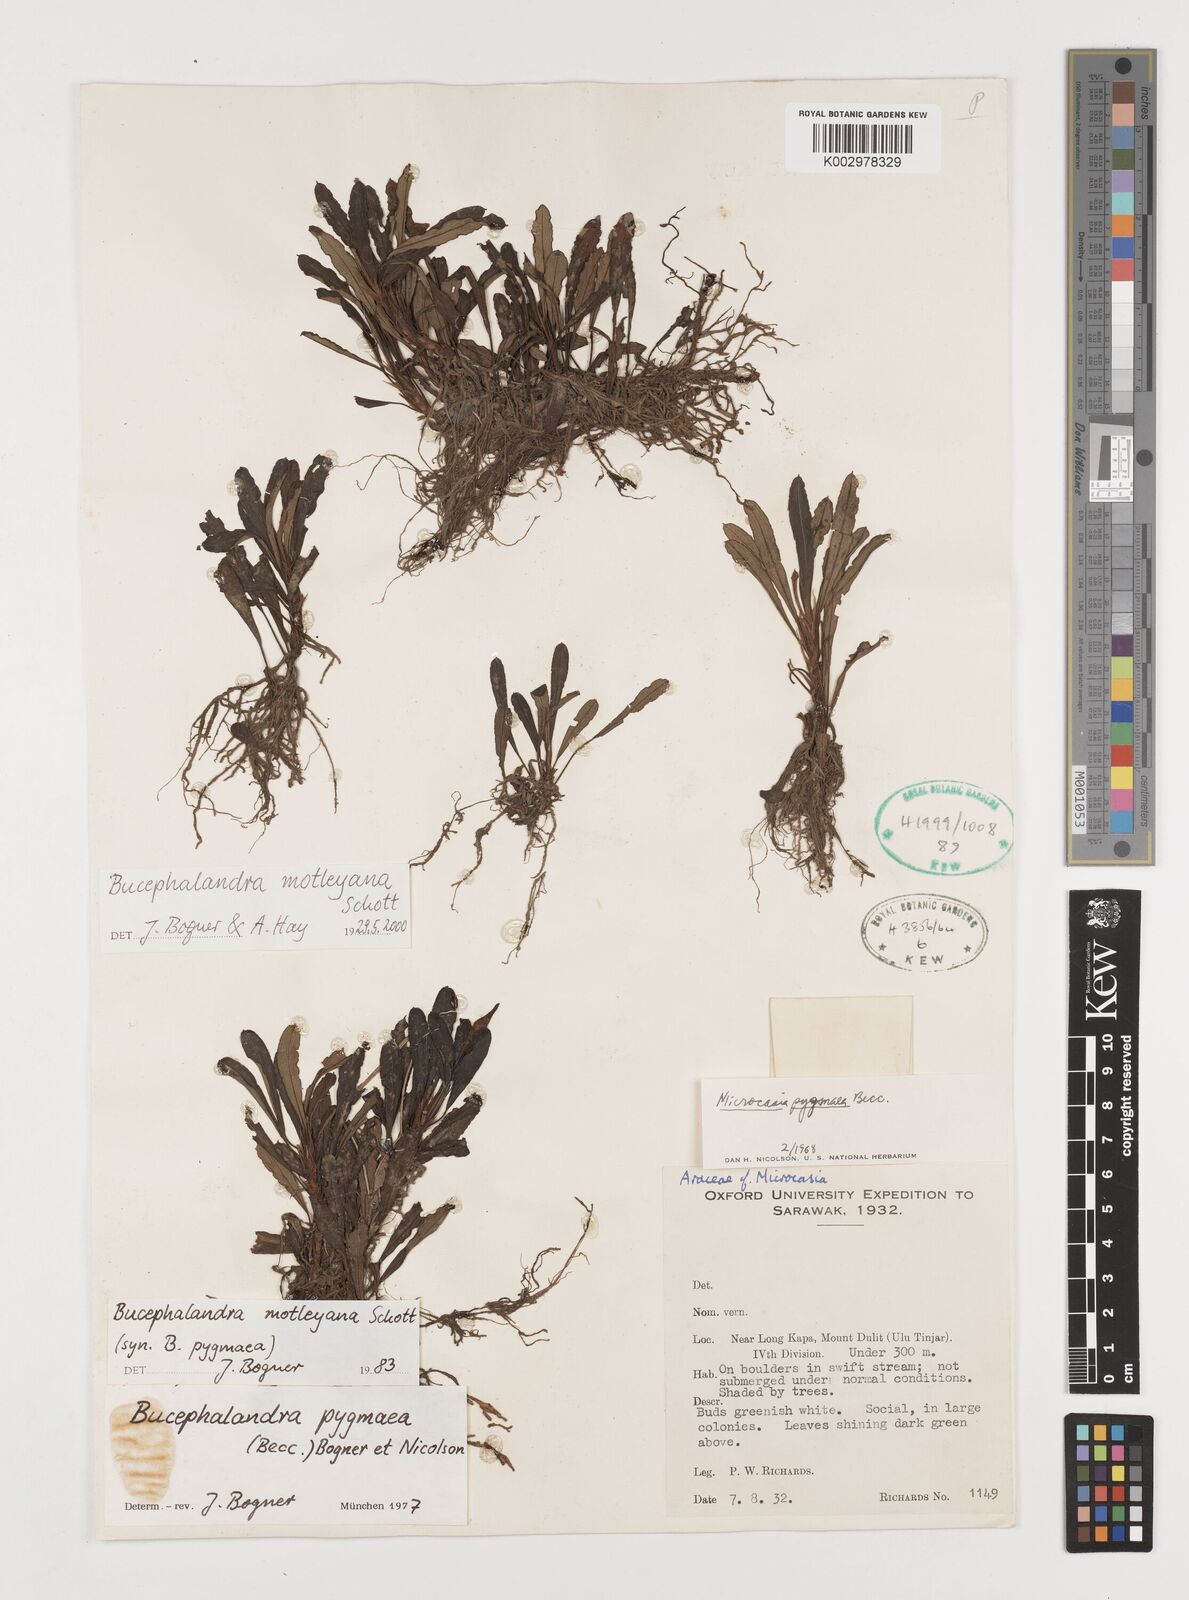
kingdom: Plantae
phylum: Tracheophyta
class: Liliopsida
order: Alismatales
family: Araceae
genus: Bucephalandra
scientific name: Bucephalandra motleyana
